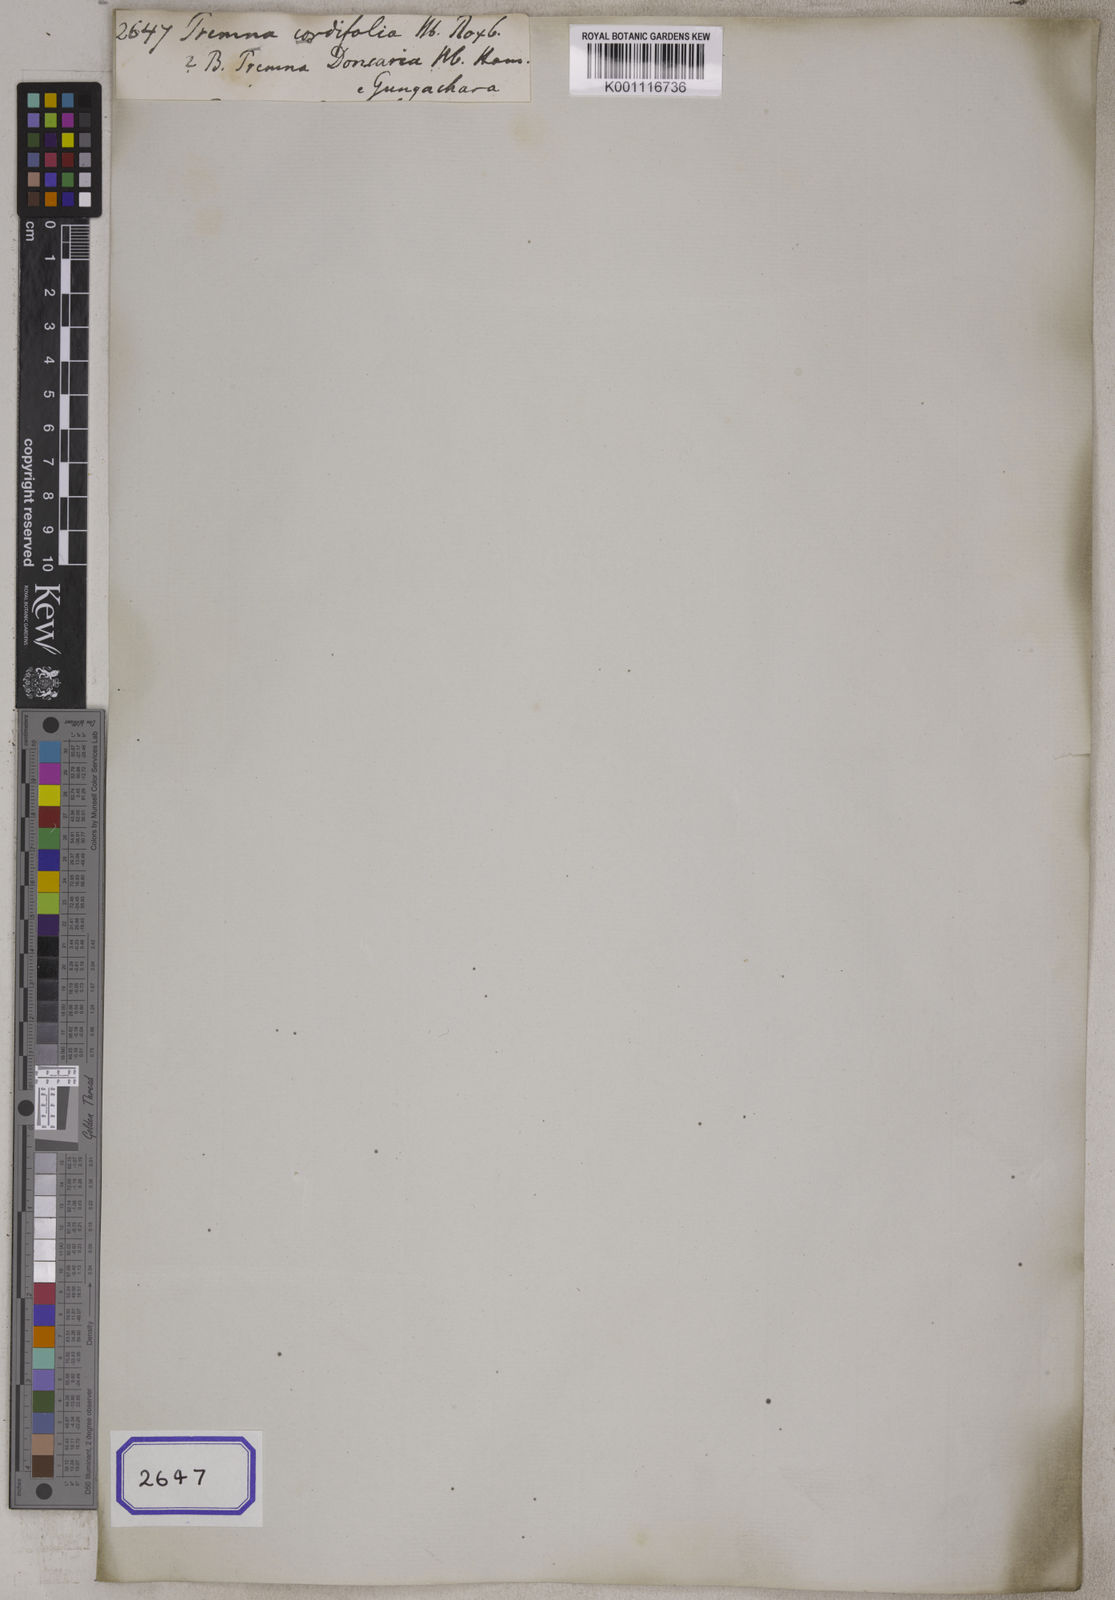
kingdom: Plantae
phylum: Tracheophyta
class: Magnoliopsida
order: Lamiales
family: Lamiaceae
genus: Premna
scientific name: Premna cordifolia
